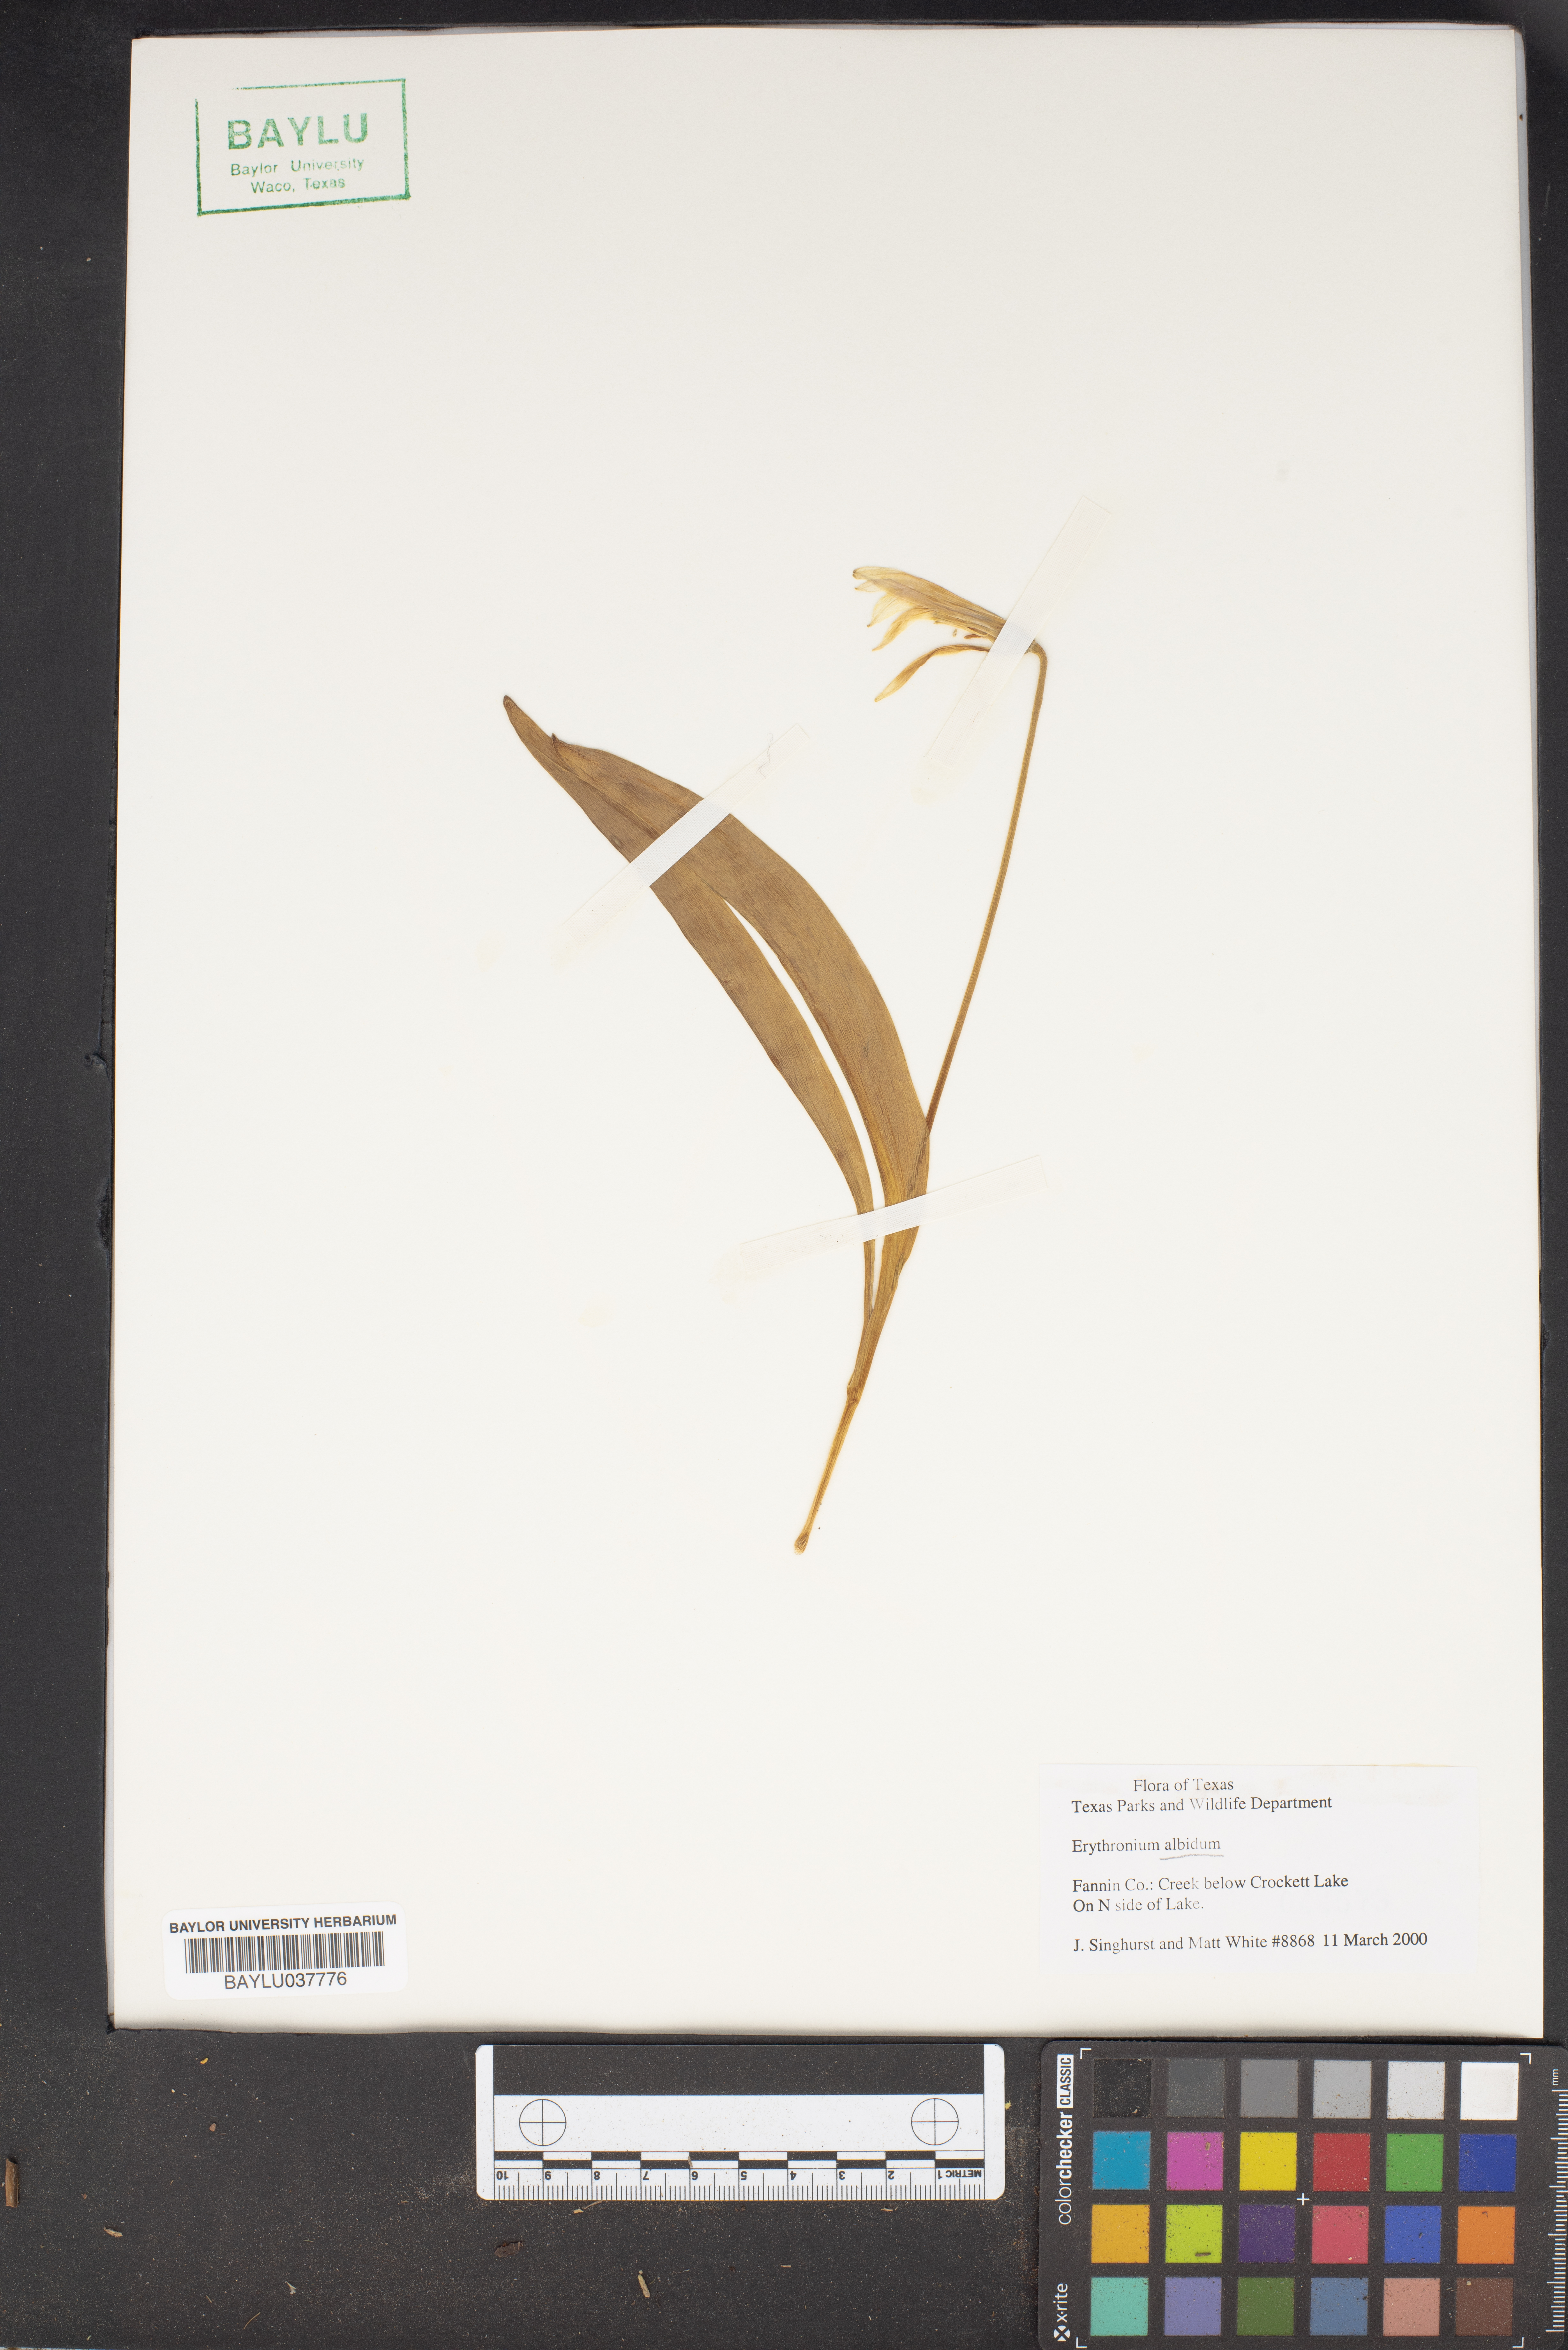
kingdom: Plantae
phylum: Tracheophyta
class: Liliopsida
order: Liliales
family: Liliaceae
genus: Erythronium
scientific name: Erythronium albidum
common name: White trout-lily
